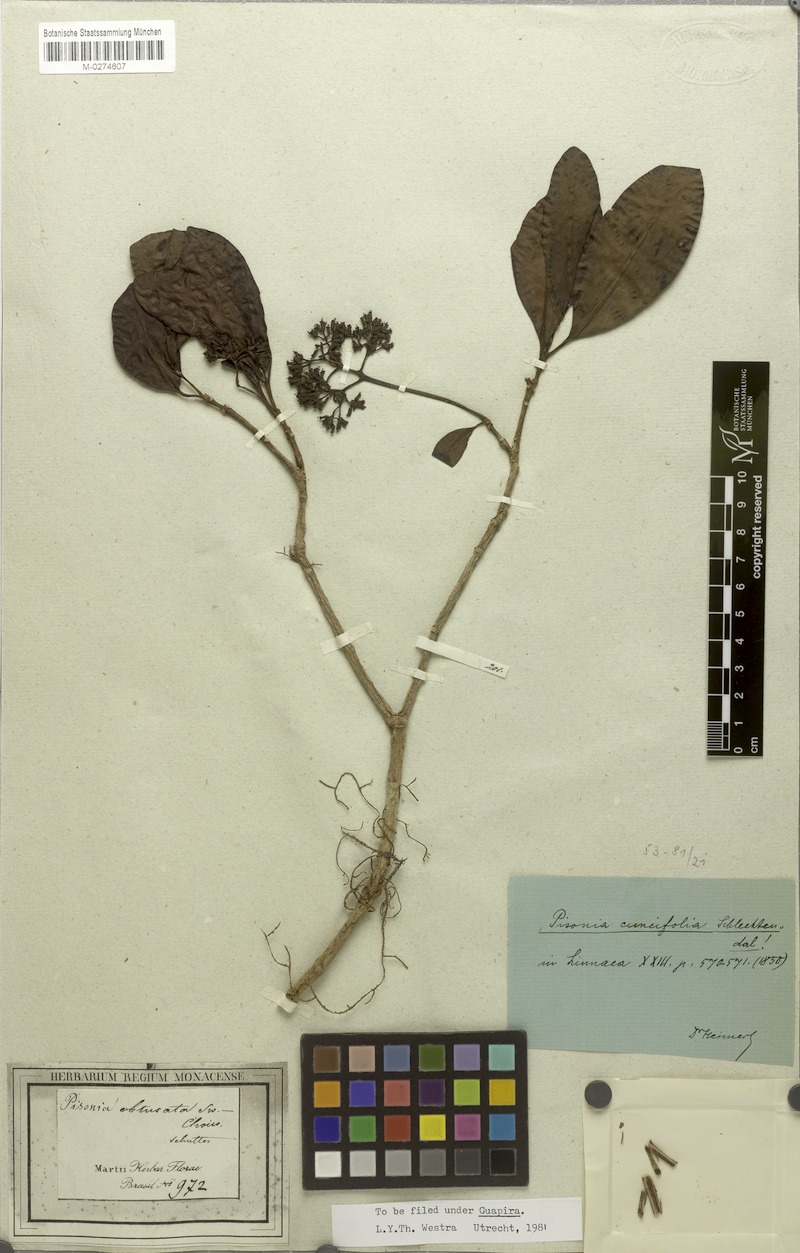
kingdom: Plantae
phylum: Tracheophyta
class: Magnoliopsida
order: Caryophyllales
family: Nyctaginaceae
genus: Guapira
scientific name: Guapira cuneifolia
